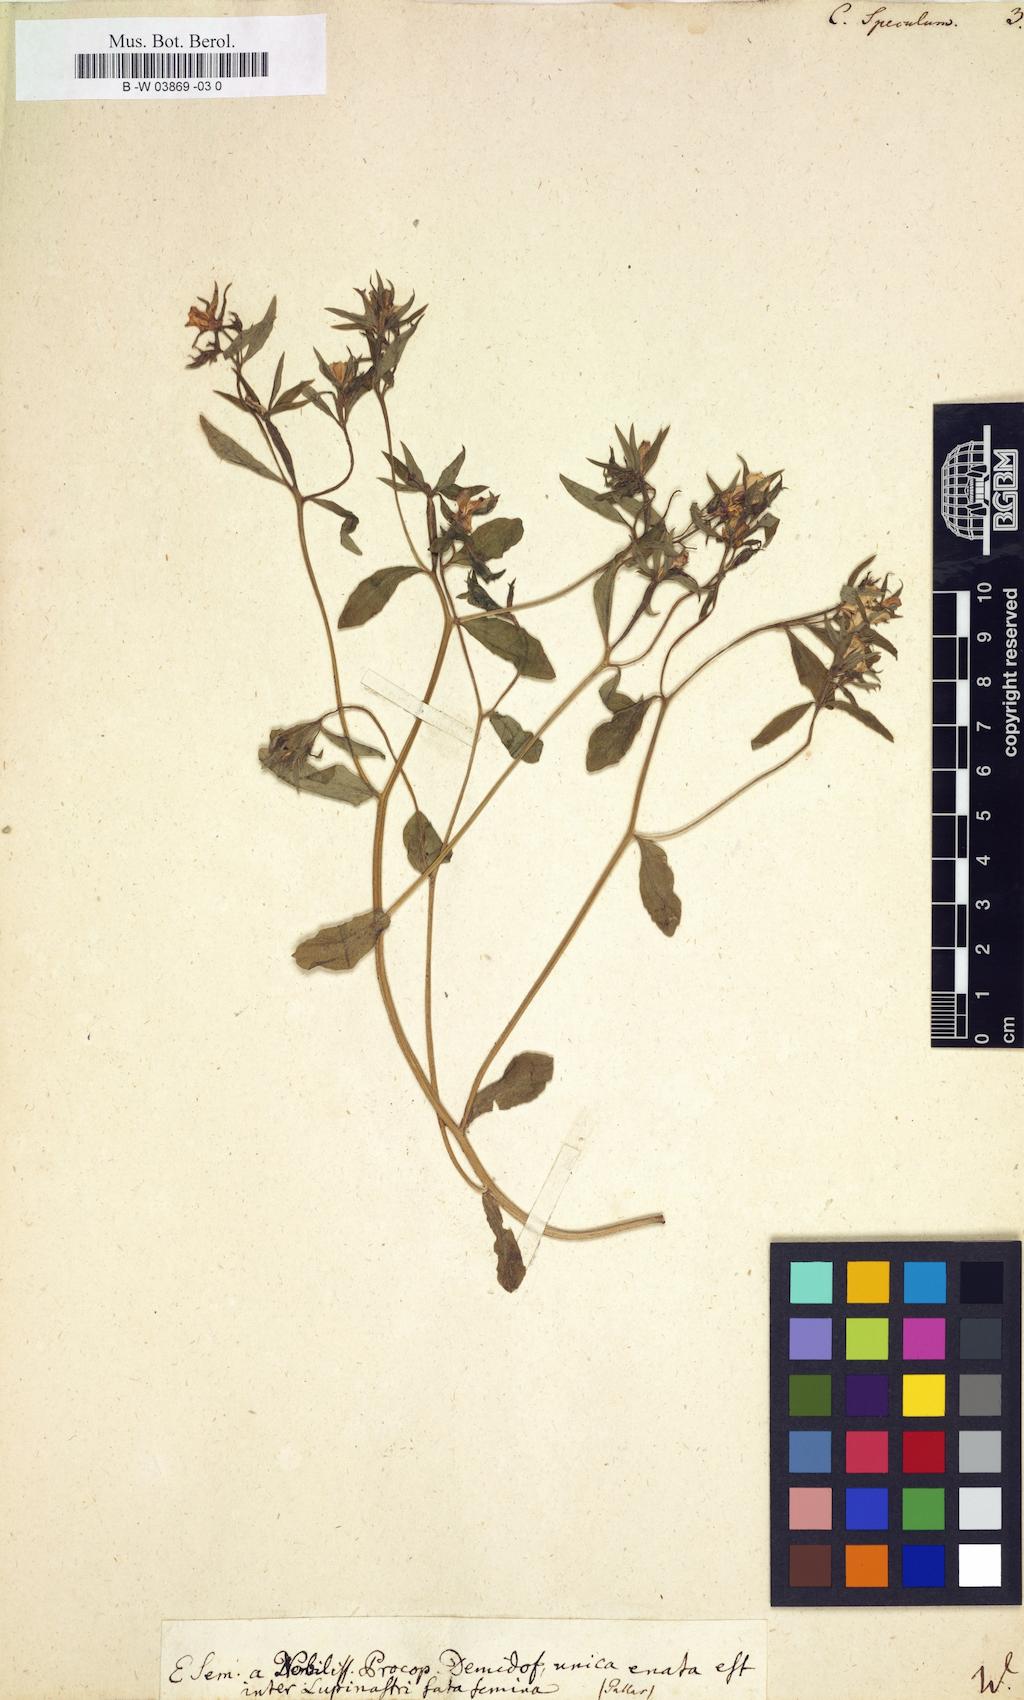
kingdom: Plantae
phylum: Tracheophyta
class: Magnoliopsida
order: Asterales
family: Campanulaceae
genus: Campanula
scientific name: Campanula speculum
